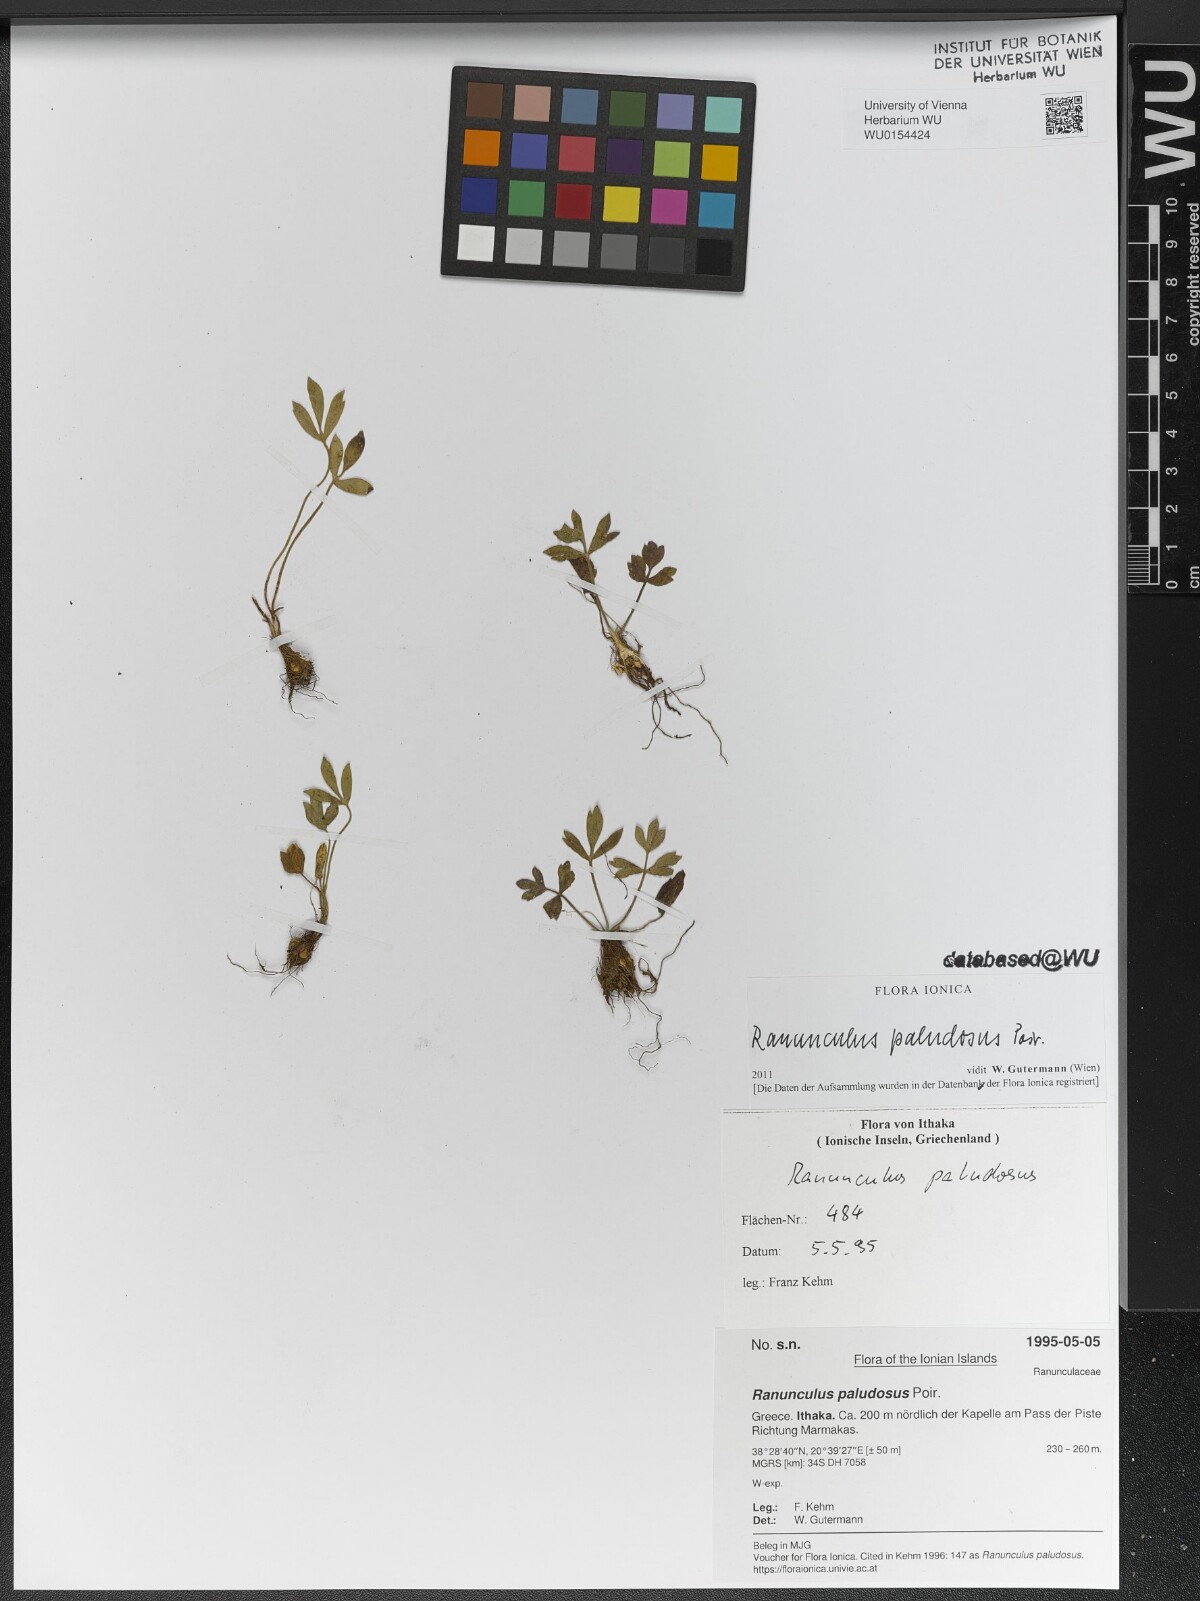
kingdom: Plantae
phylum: Tracheophyta
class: Magnoliopsida
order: Ranunculales
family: Ranunculaceae
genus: Ranunculus
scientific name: Ranunculus paludosus
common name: Jersey buttercup
